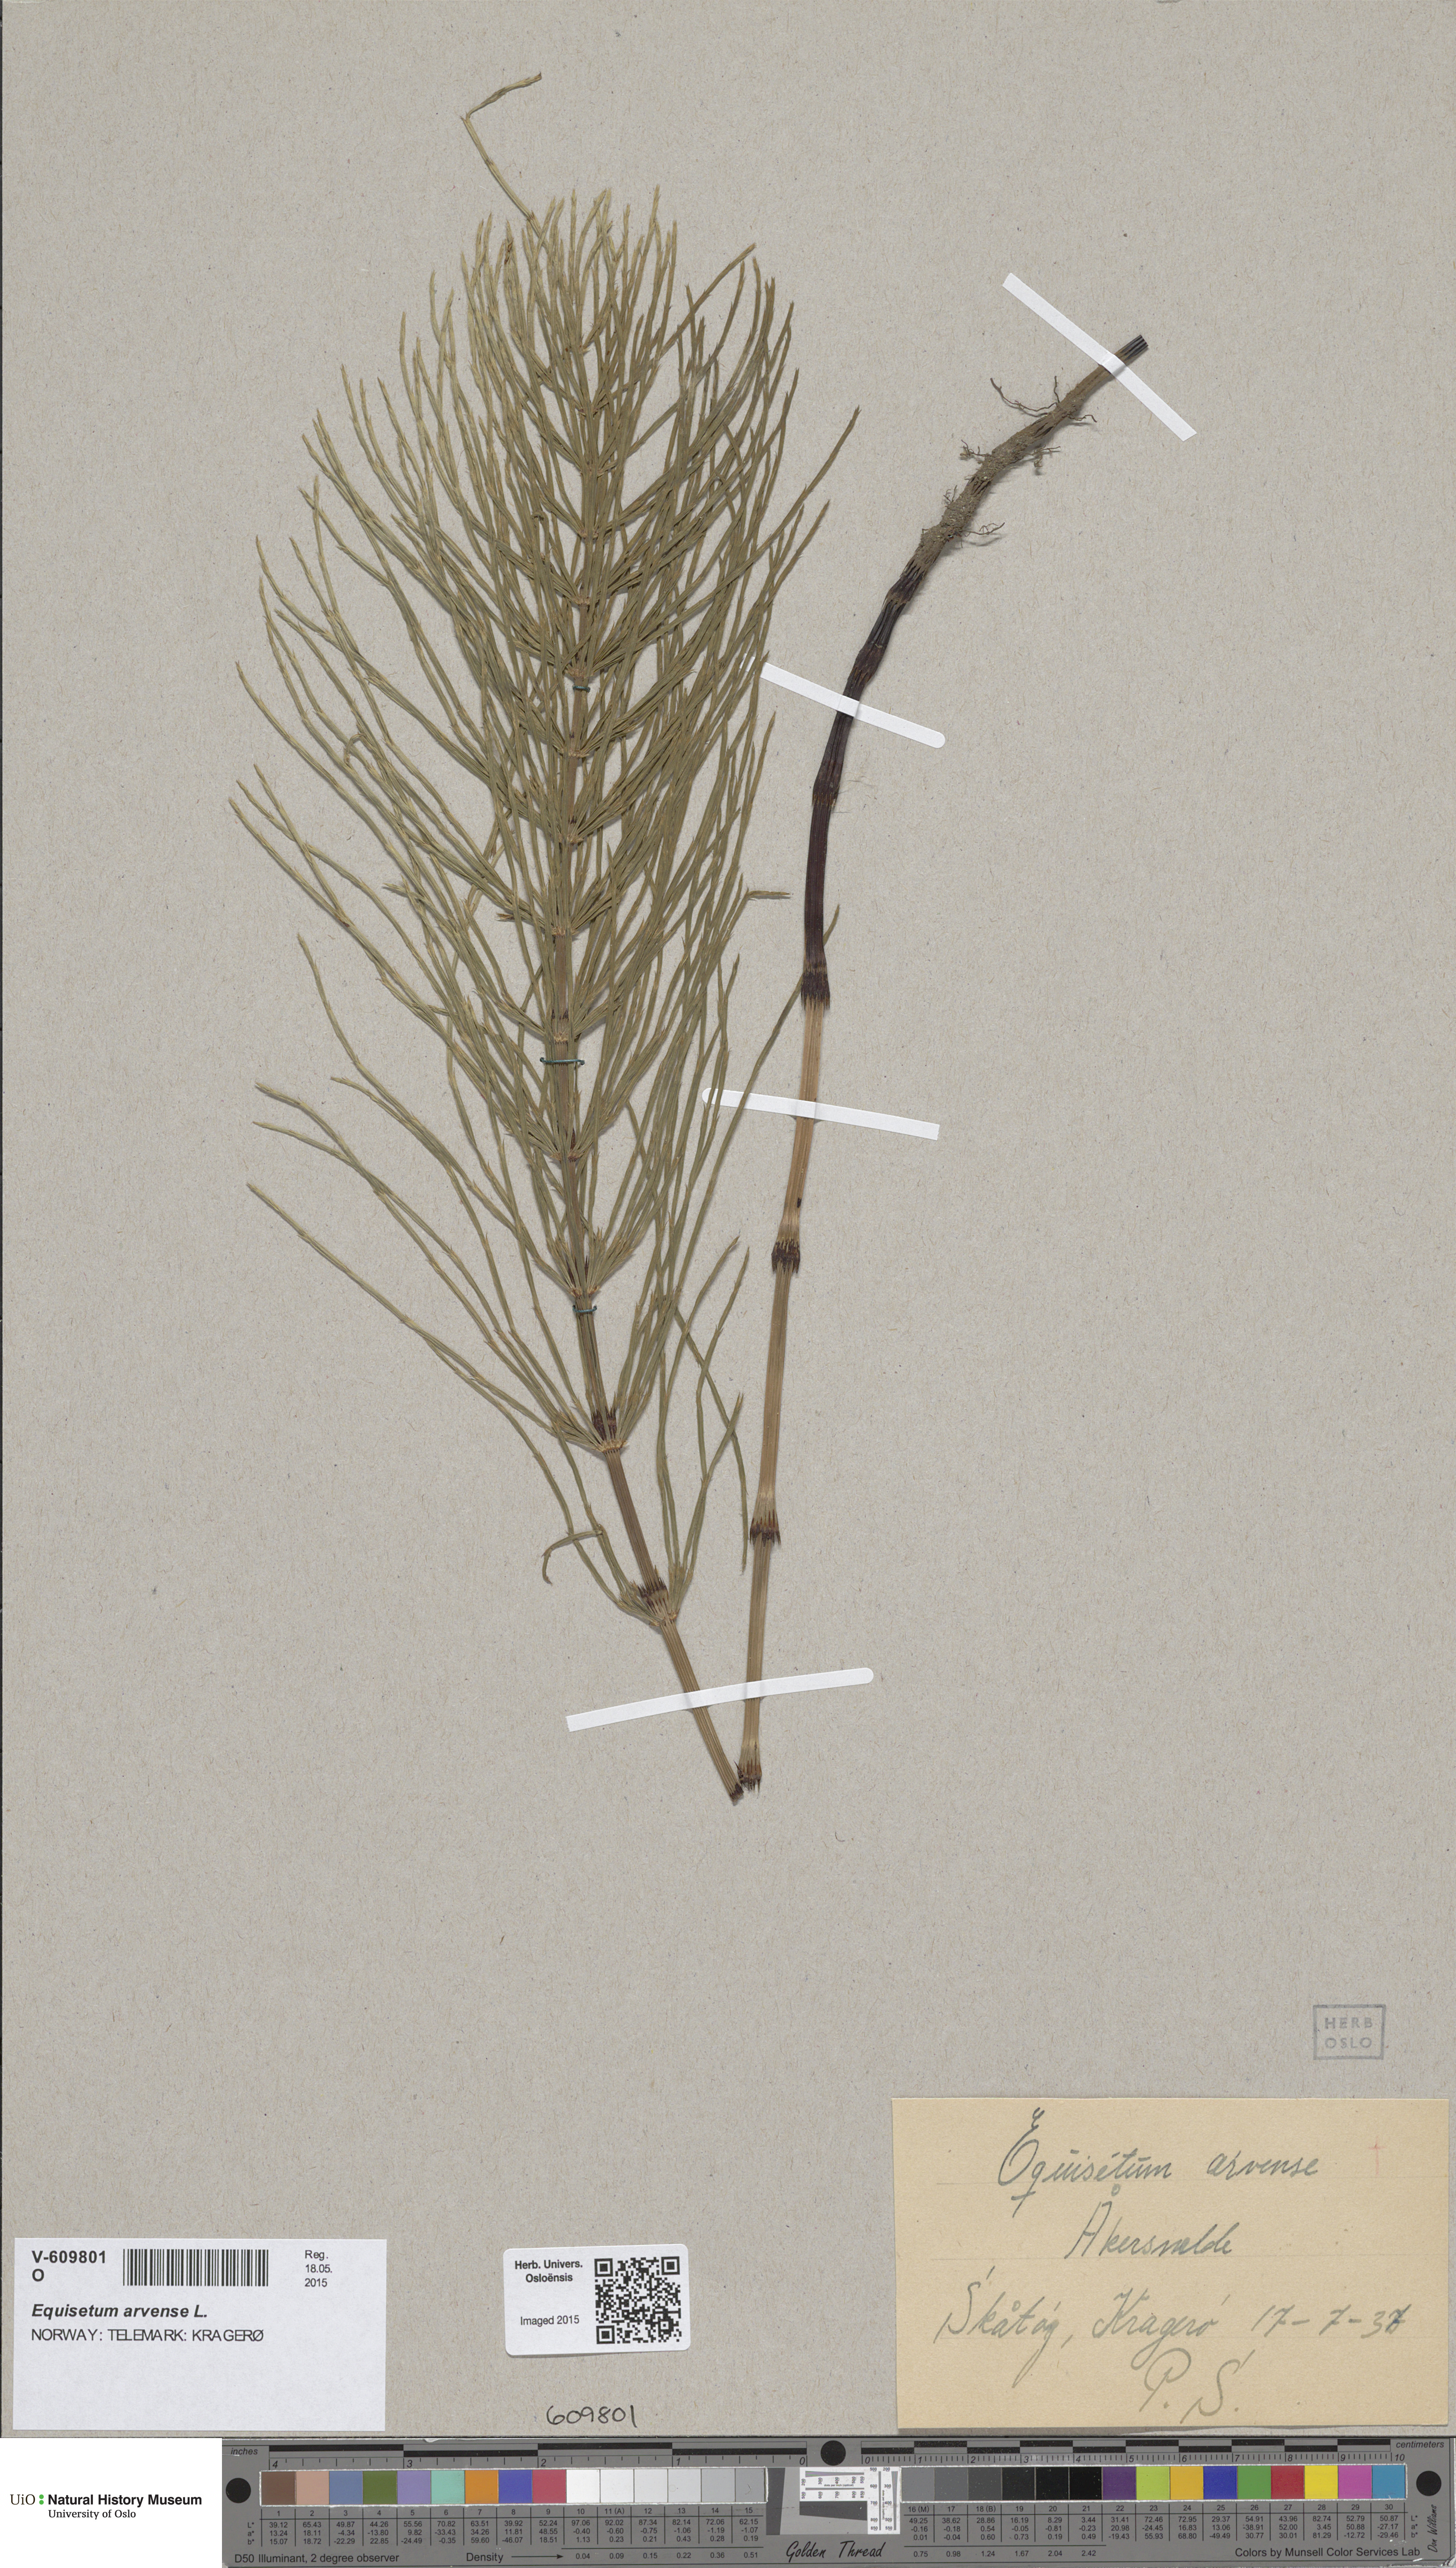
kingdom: Plantae
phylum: Tracheophyta
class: Polypodiopsida
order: Equisetales
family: Equisetaceae
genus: Equisetum
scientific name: Equisetum arvense
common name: Field horsetail
